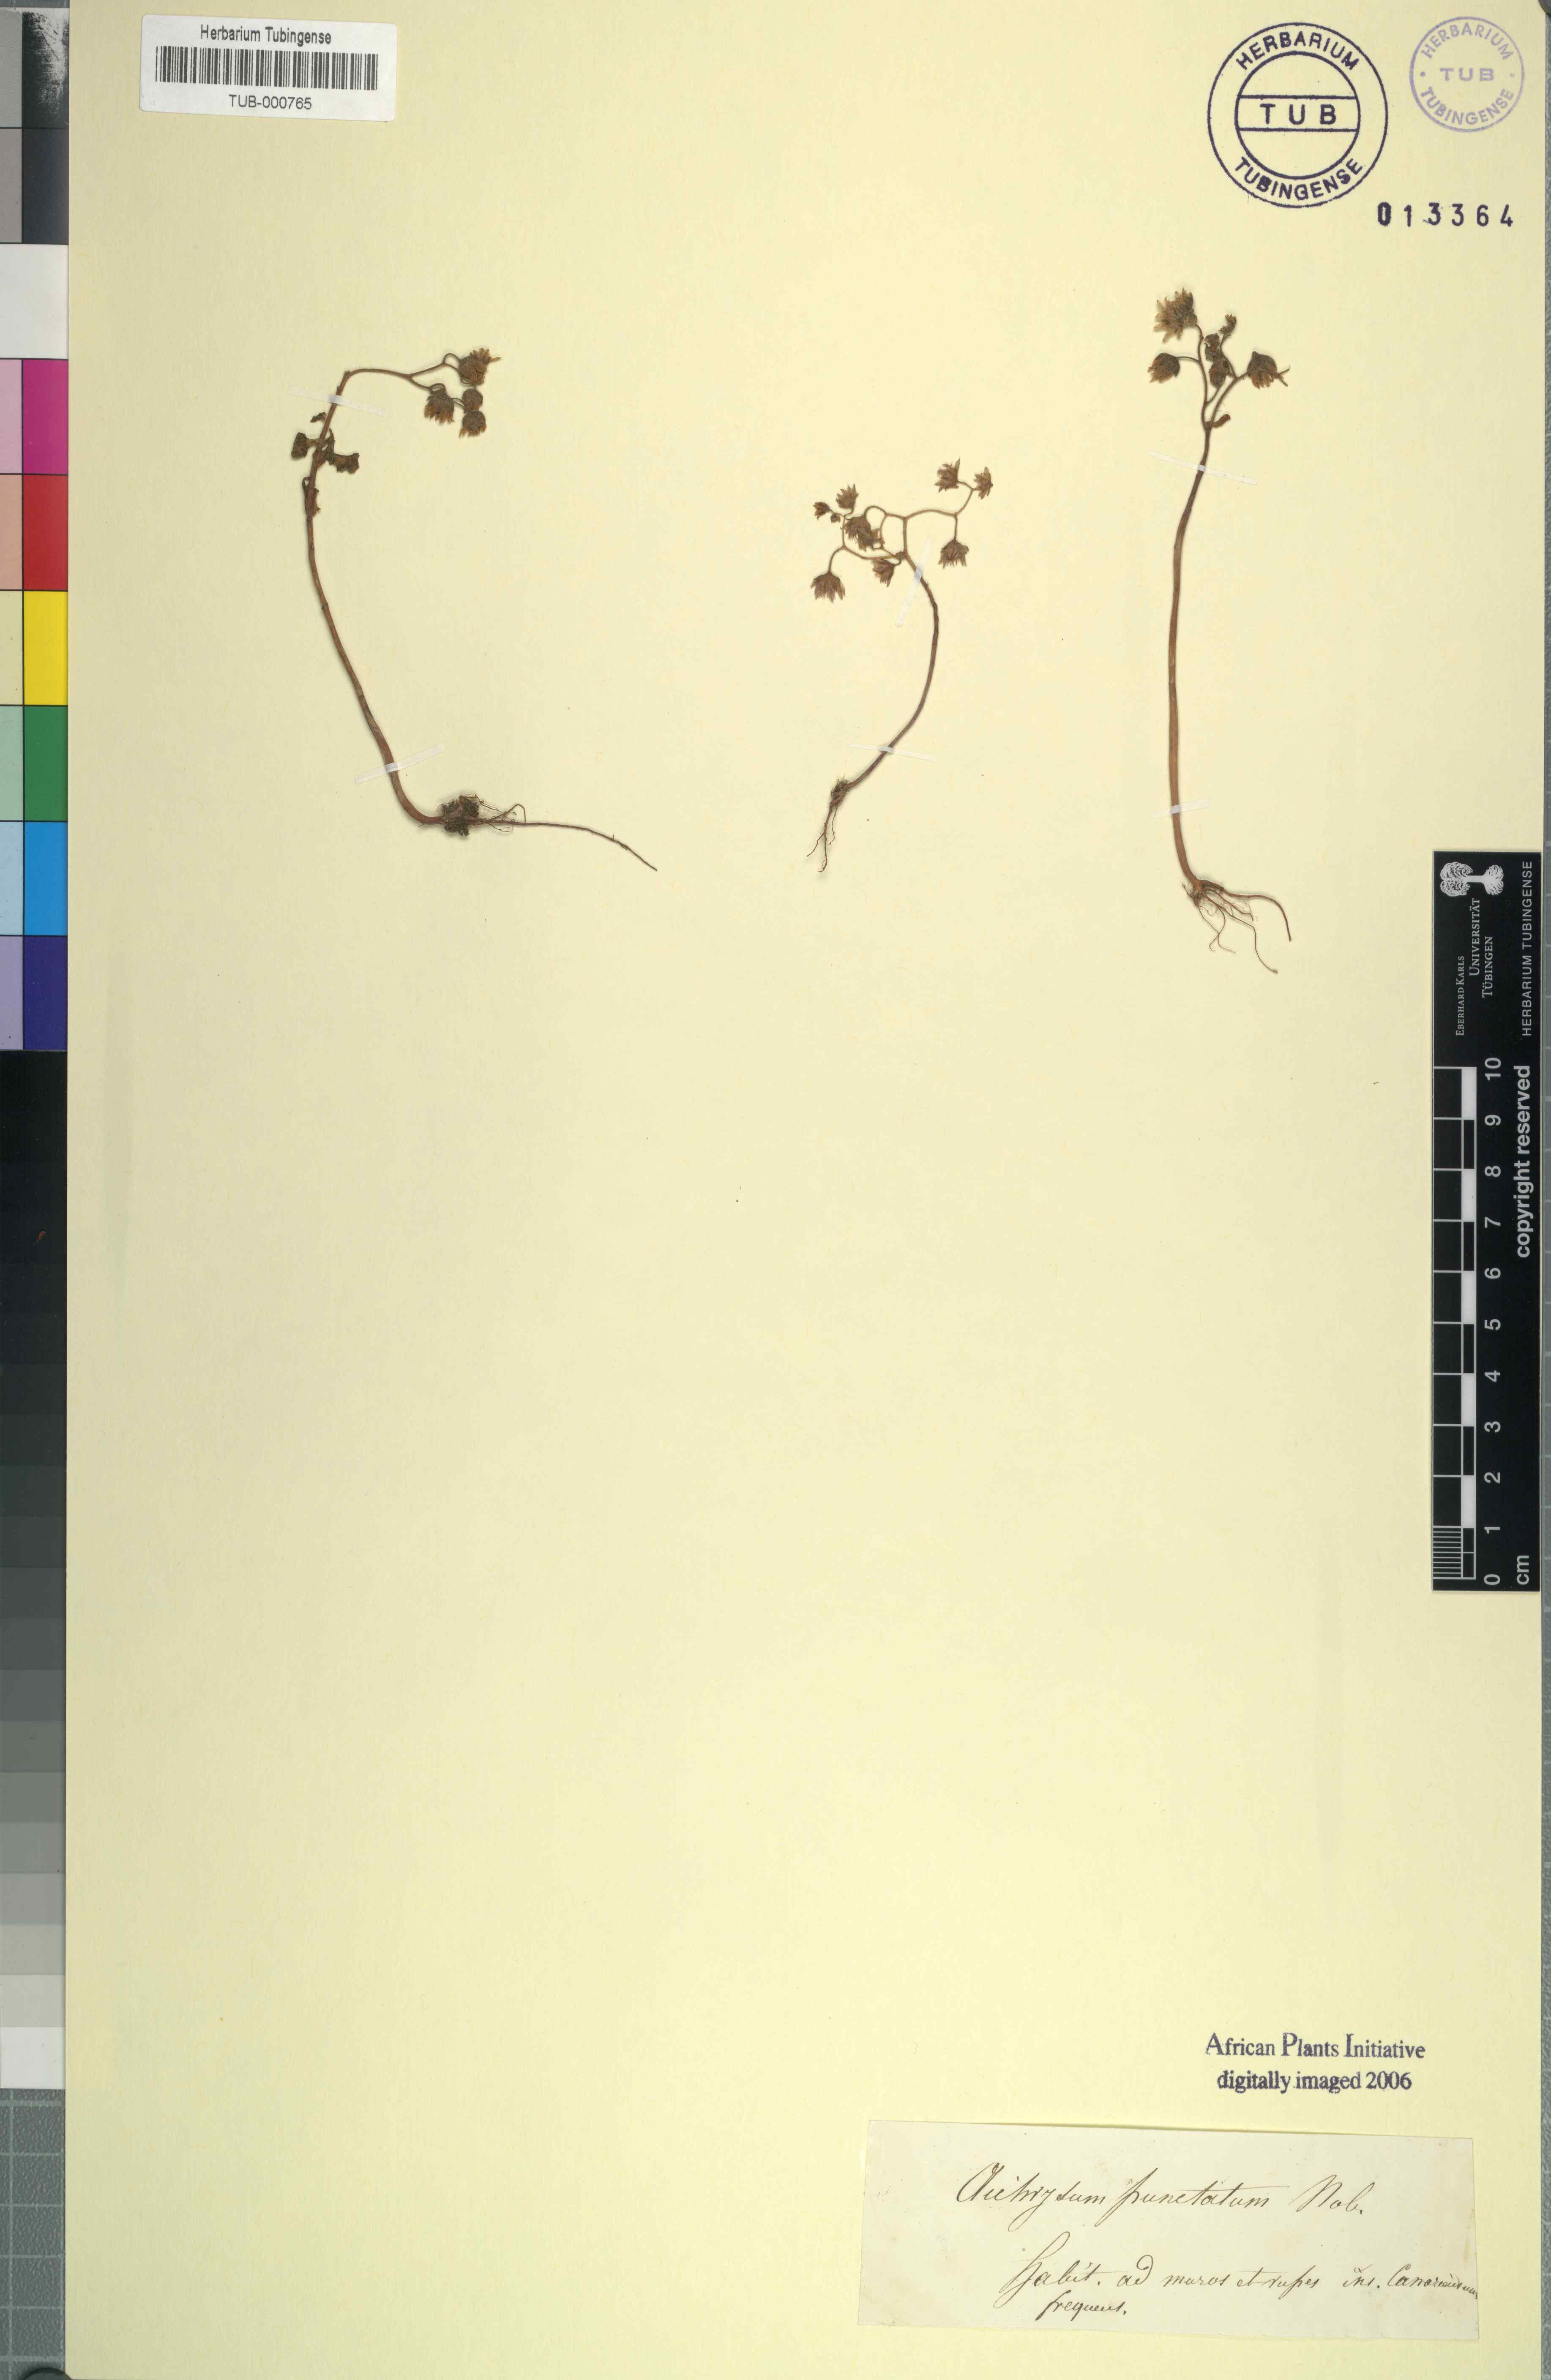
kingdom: Plantae
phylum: Tracheophyta
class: Magnoliopsida
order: Saxifragales
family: Crassulaceae
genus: Aichryson
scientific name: Aichryson punctatum
